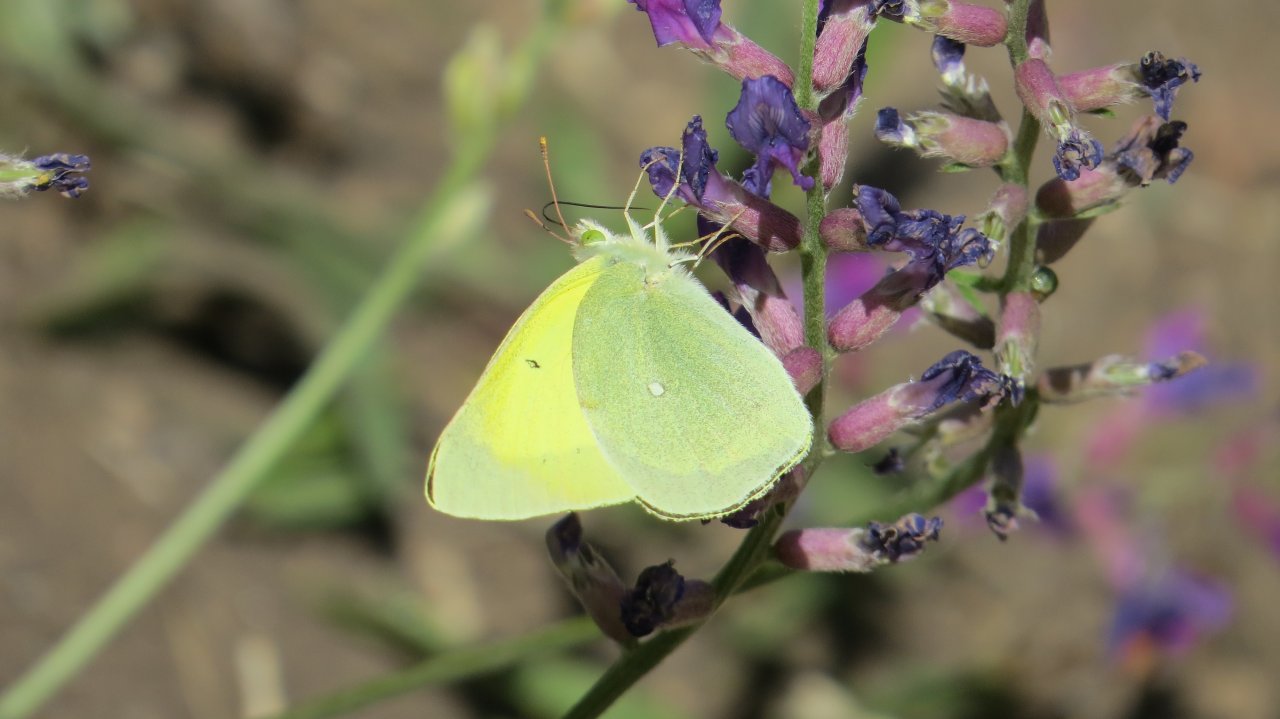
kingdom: Animalia
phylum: Arthropoda
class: Insecta
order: Lepidoptera
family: Pieridae
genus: Colias
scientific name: Colias alexandra
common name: Queen Alexandra's Sulphur
